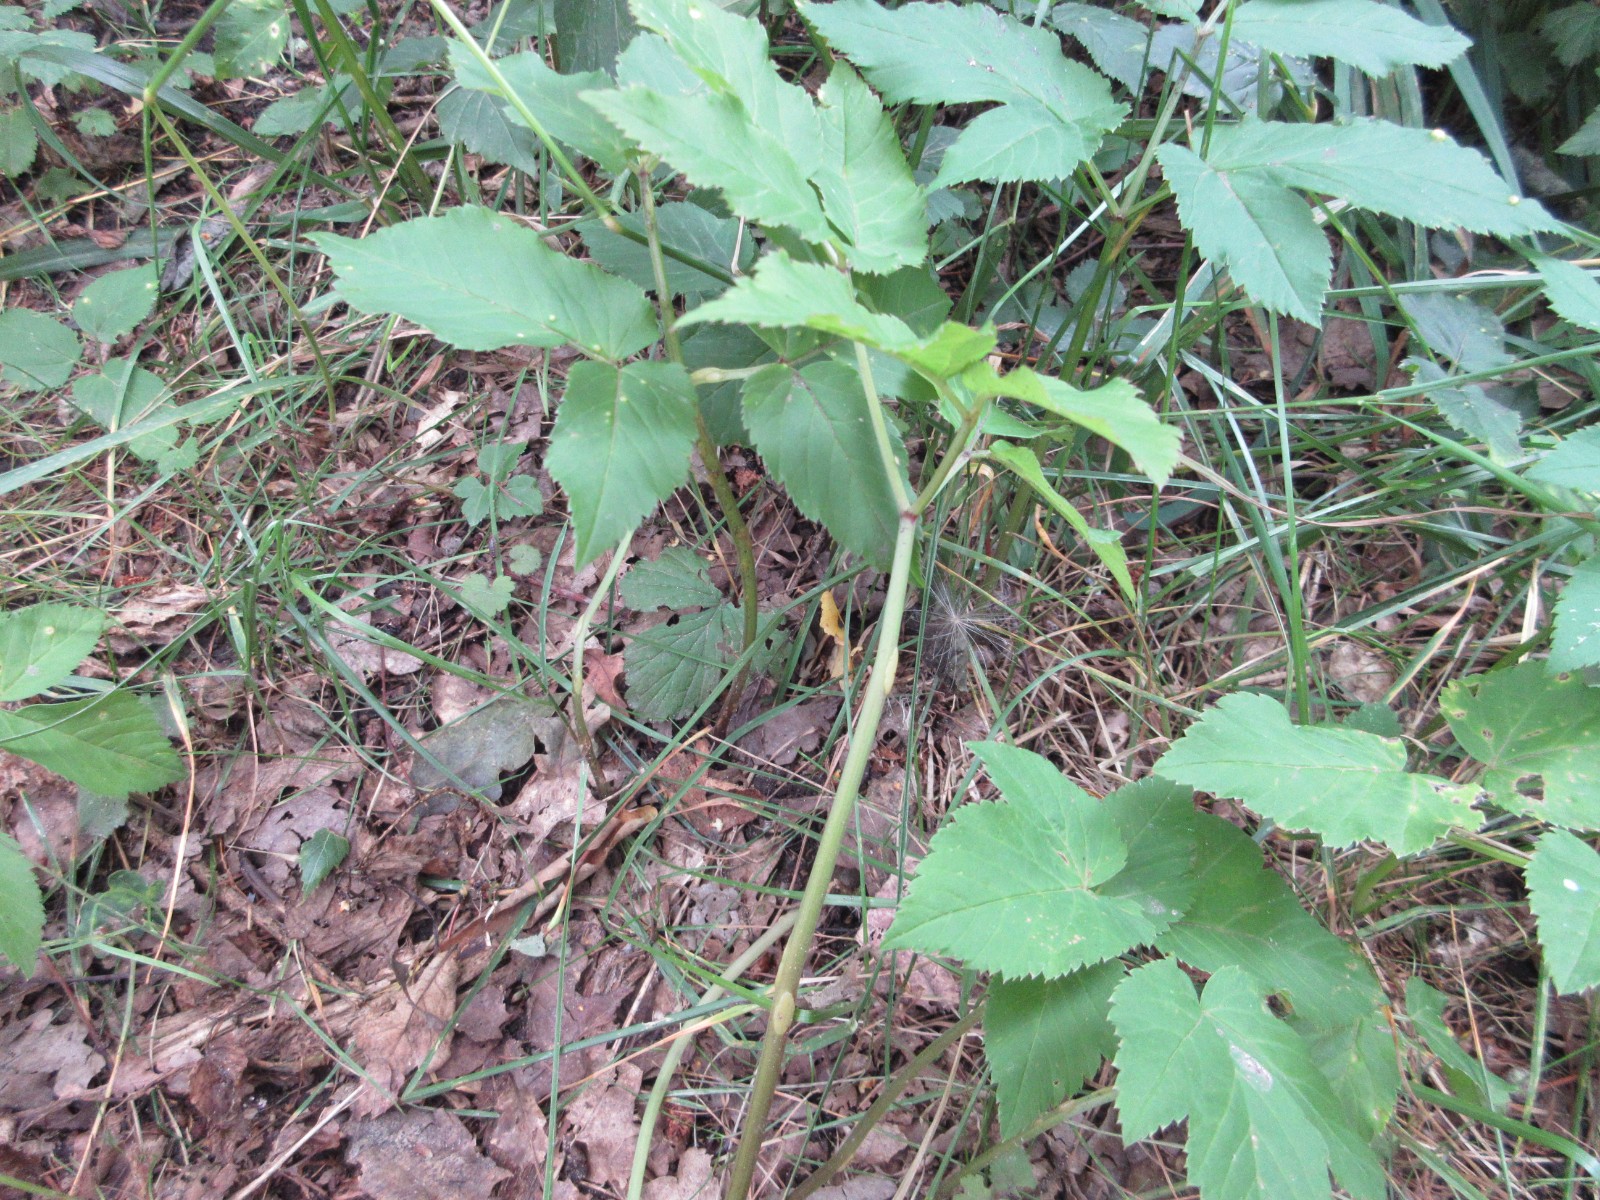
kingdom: Fungi
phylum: Ascomycota
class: Taphrinomycetes
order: Taphrinales
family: Taphrinaceae
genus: Protomyces
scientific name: Protomyces macrosporus
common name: skvalderkål-vablesæk
